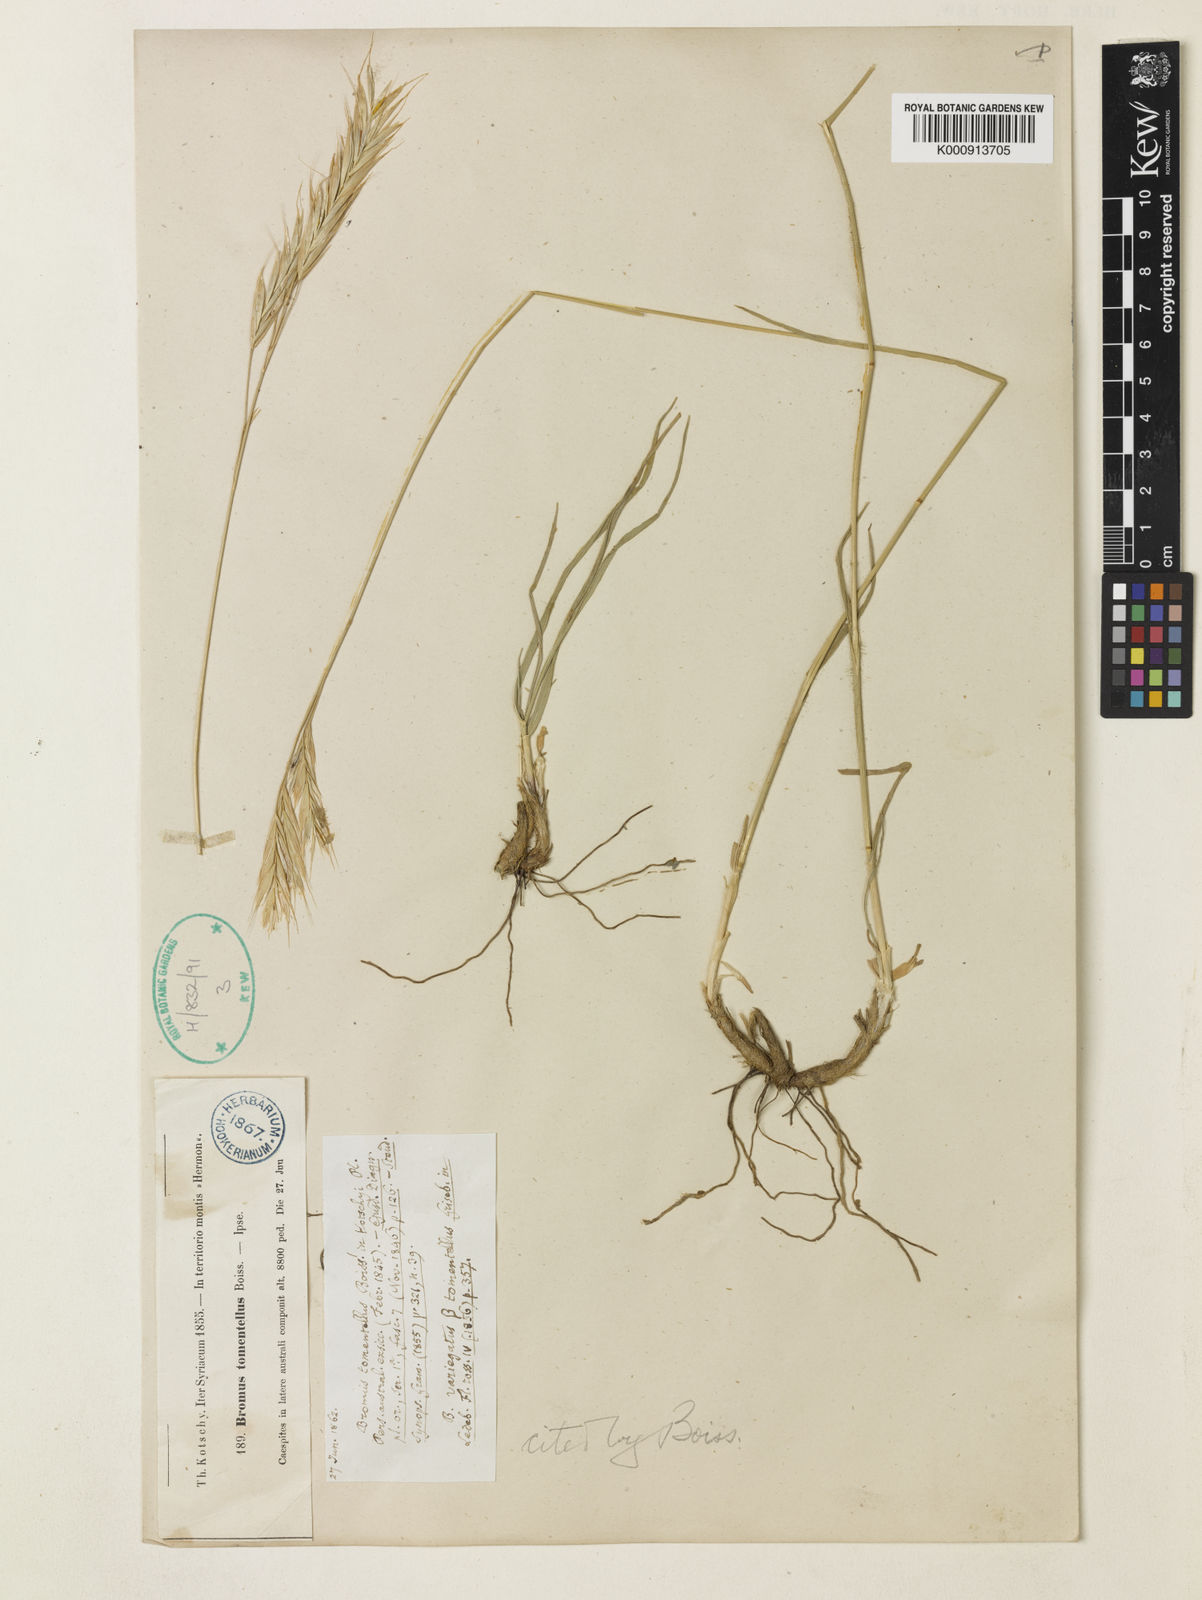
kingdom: Plantae
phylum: Tracheophyta
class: Liliopsida
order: Poales
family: Poaceae
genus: Bromus
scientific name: Bromus tomentellus
